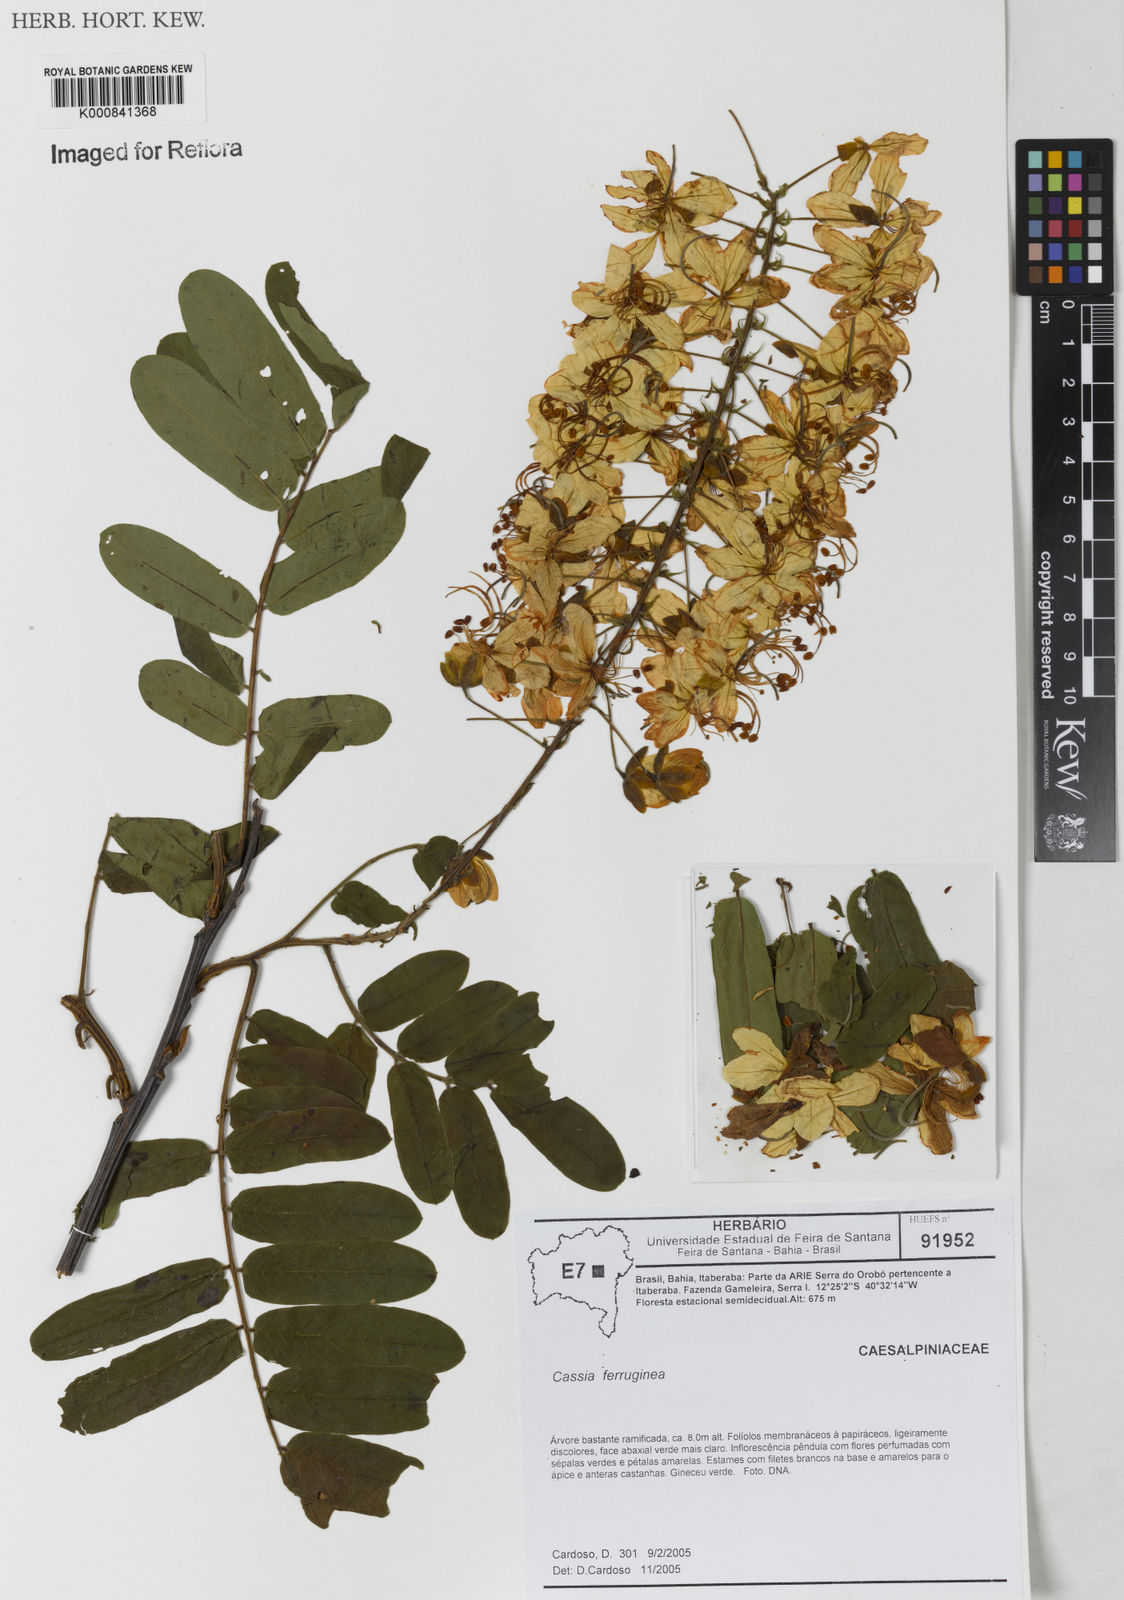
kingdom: Plantae
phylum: Tracheophyta
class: Magnoliopsida
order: Fabales
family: Fabaceae
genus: Cassia
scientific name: Cassia ferruginea
